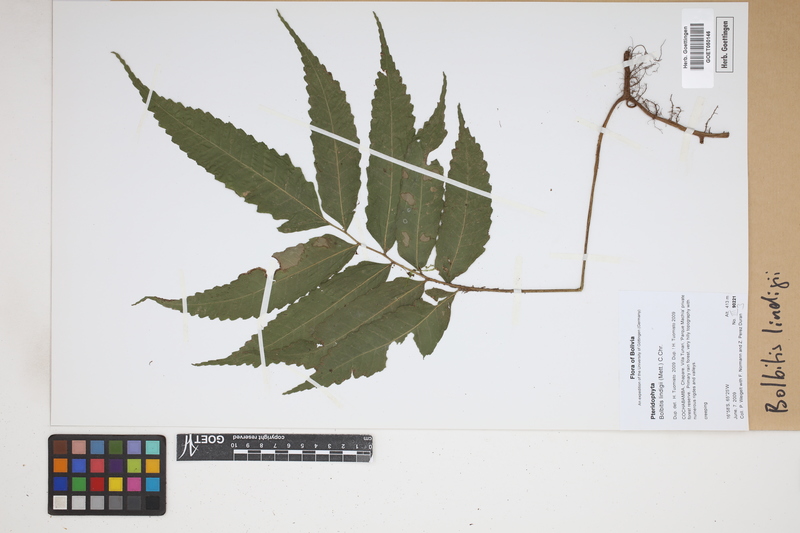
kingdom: Plantae
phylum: Tracheophyta
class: Polypodiopsida
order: Polypodiales
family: Dryopteridaceae
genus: Mickelia
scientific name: Mickelia lindigii
